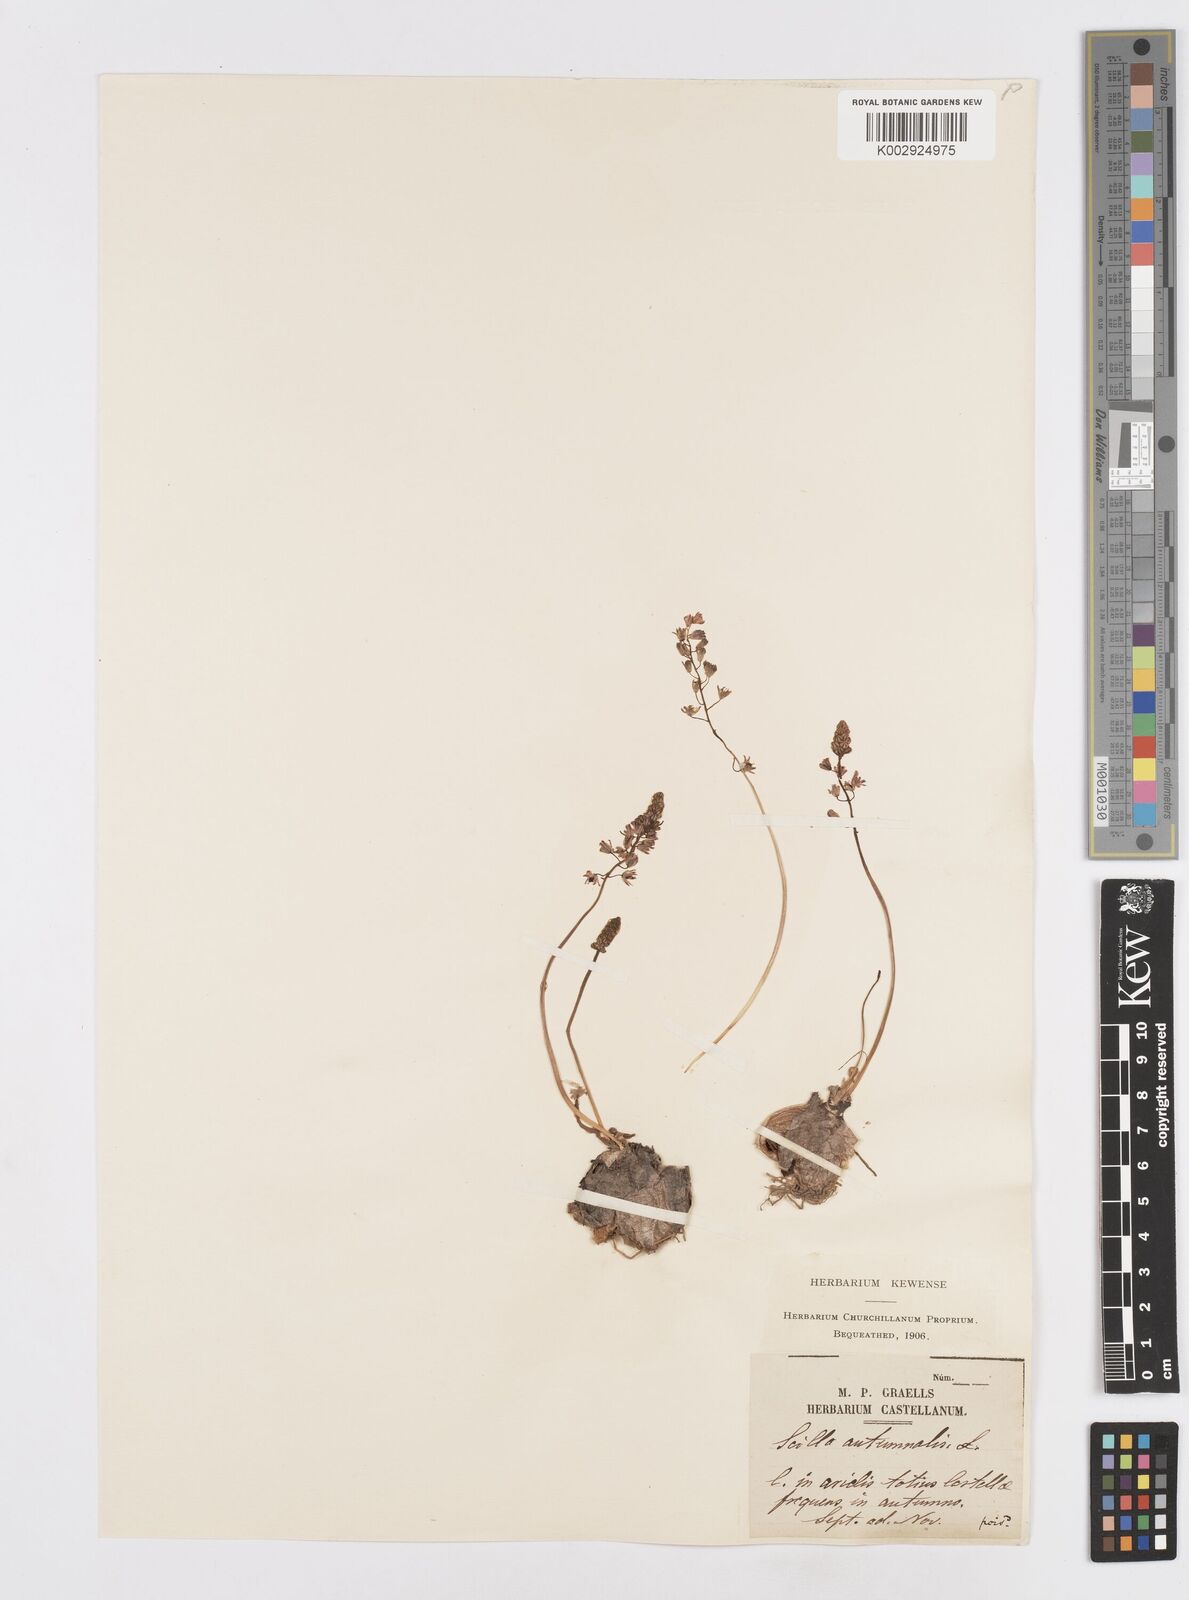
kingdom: Plantae
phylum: Tracheophyta
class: Liliopsida
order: Asparagales
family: Asparagaceae
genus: Prospero
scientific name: Prospero autumnale
